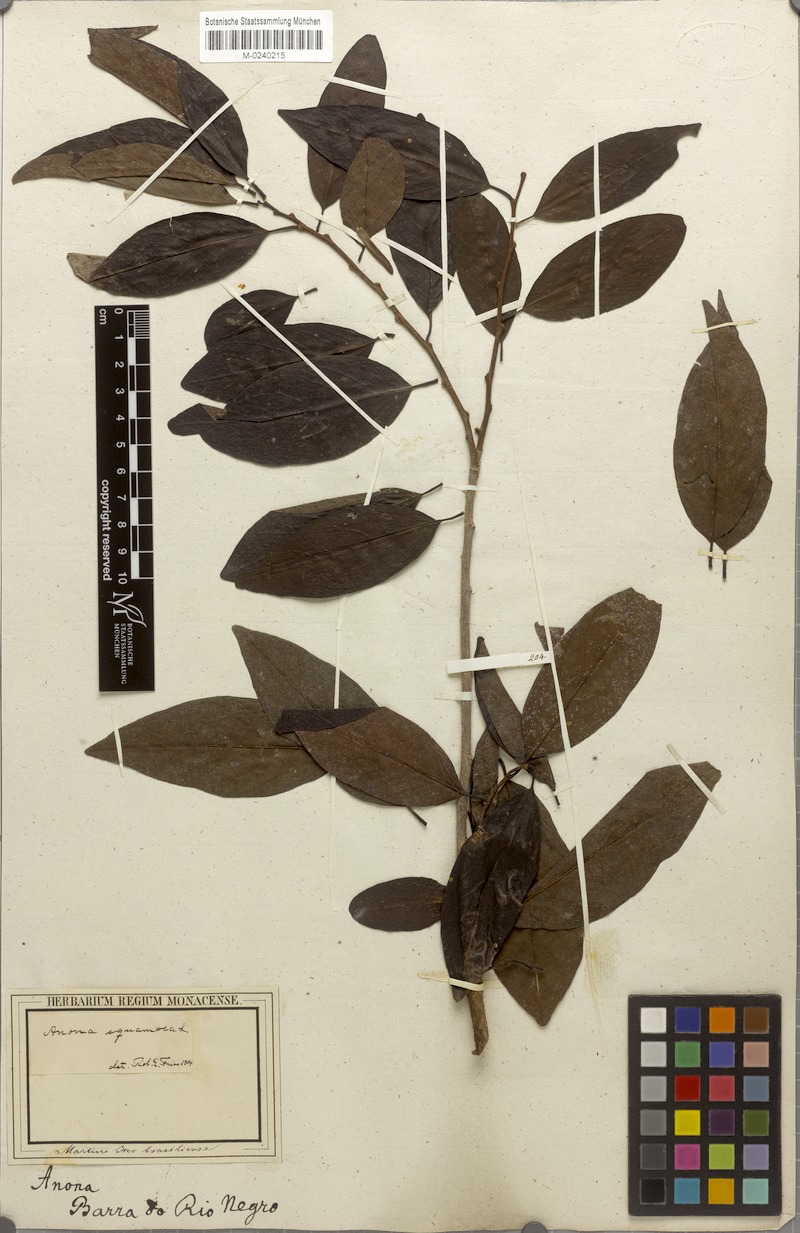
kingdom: Plantae
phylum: Tracheophyta
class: Magnoliopsida
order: Magnoliales
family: Annonaceae
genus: Annona
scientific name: Annona squamosa
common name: Custard-apple
